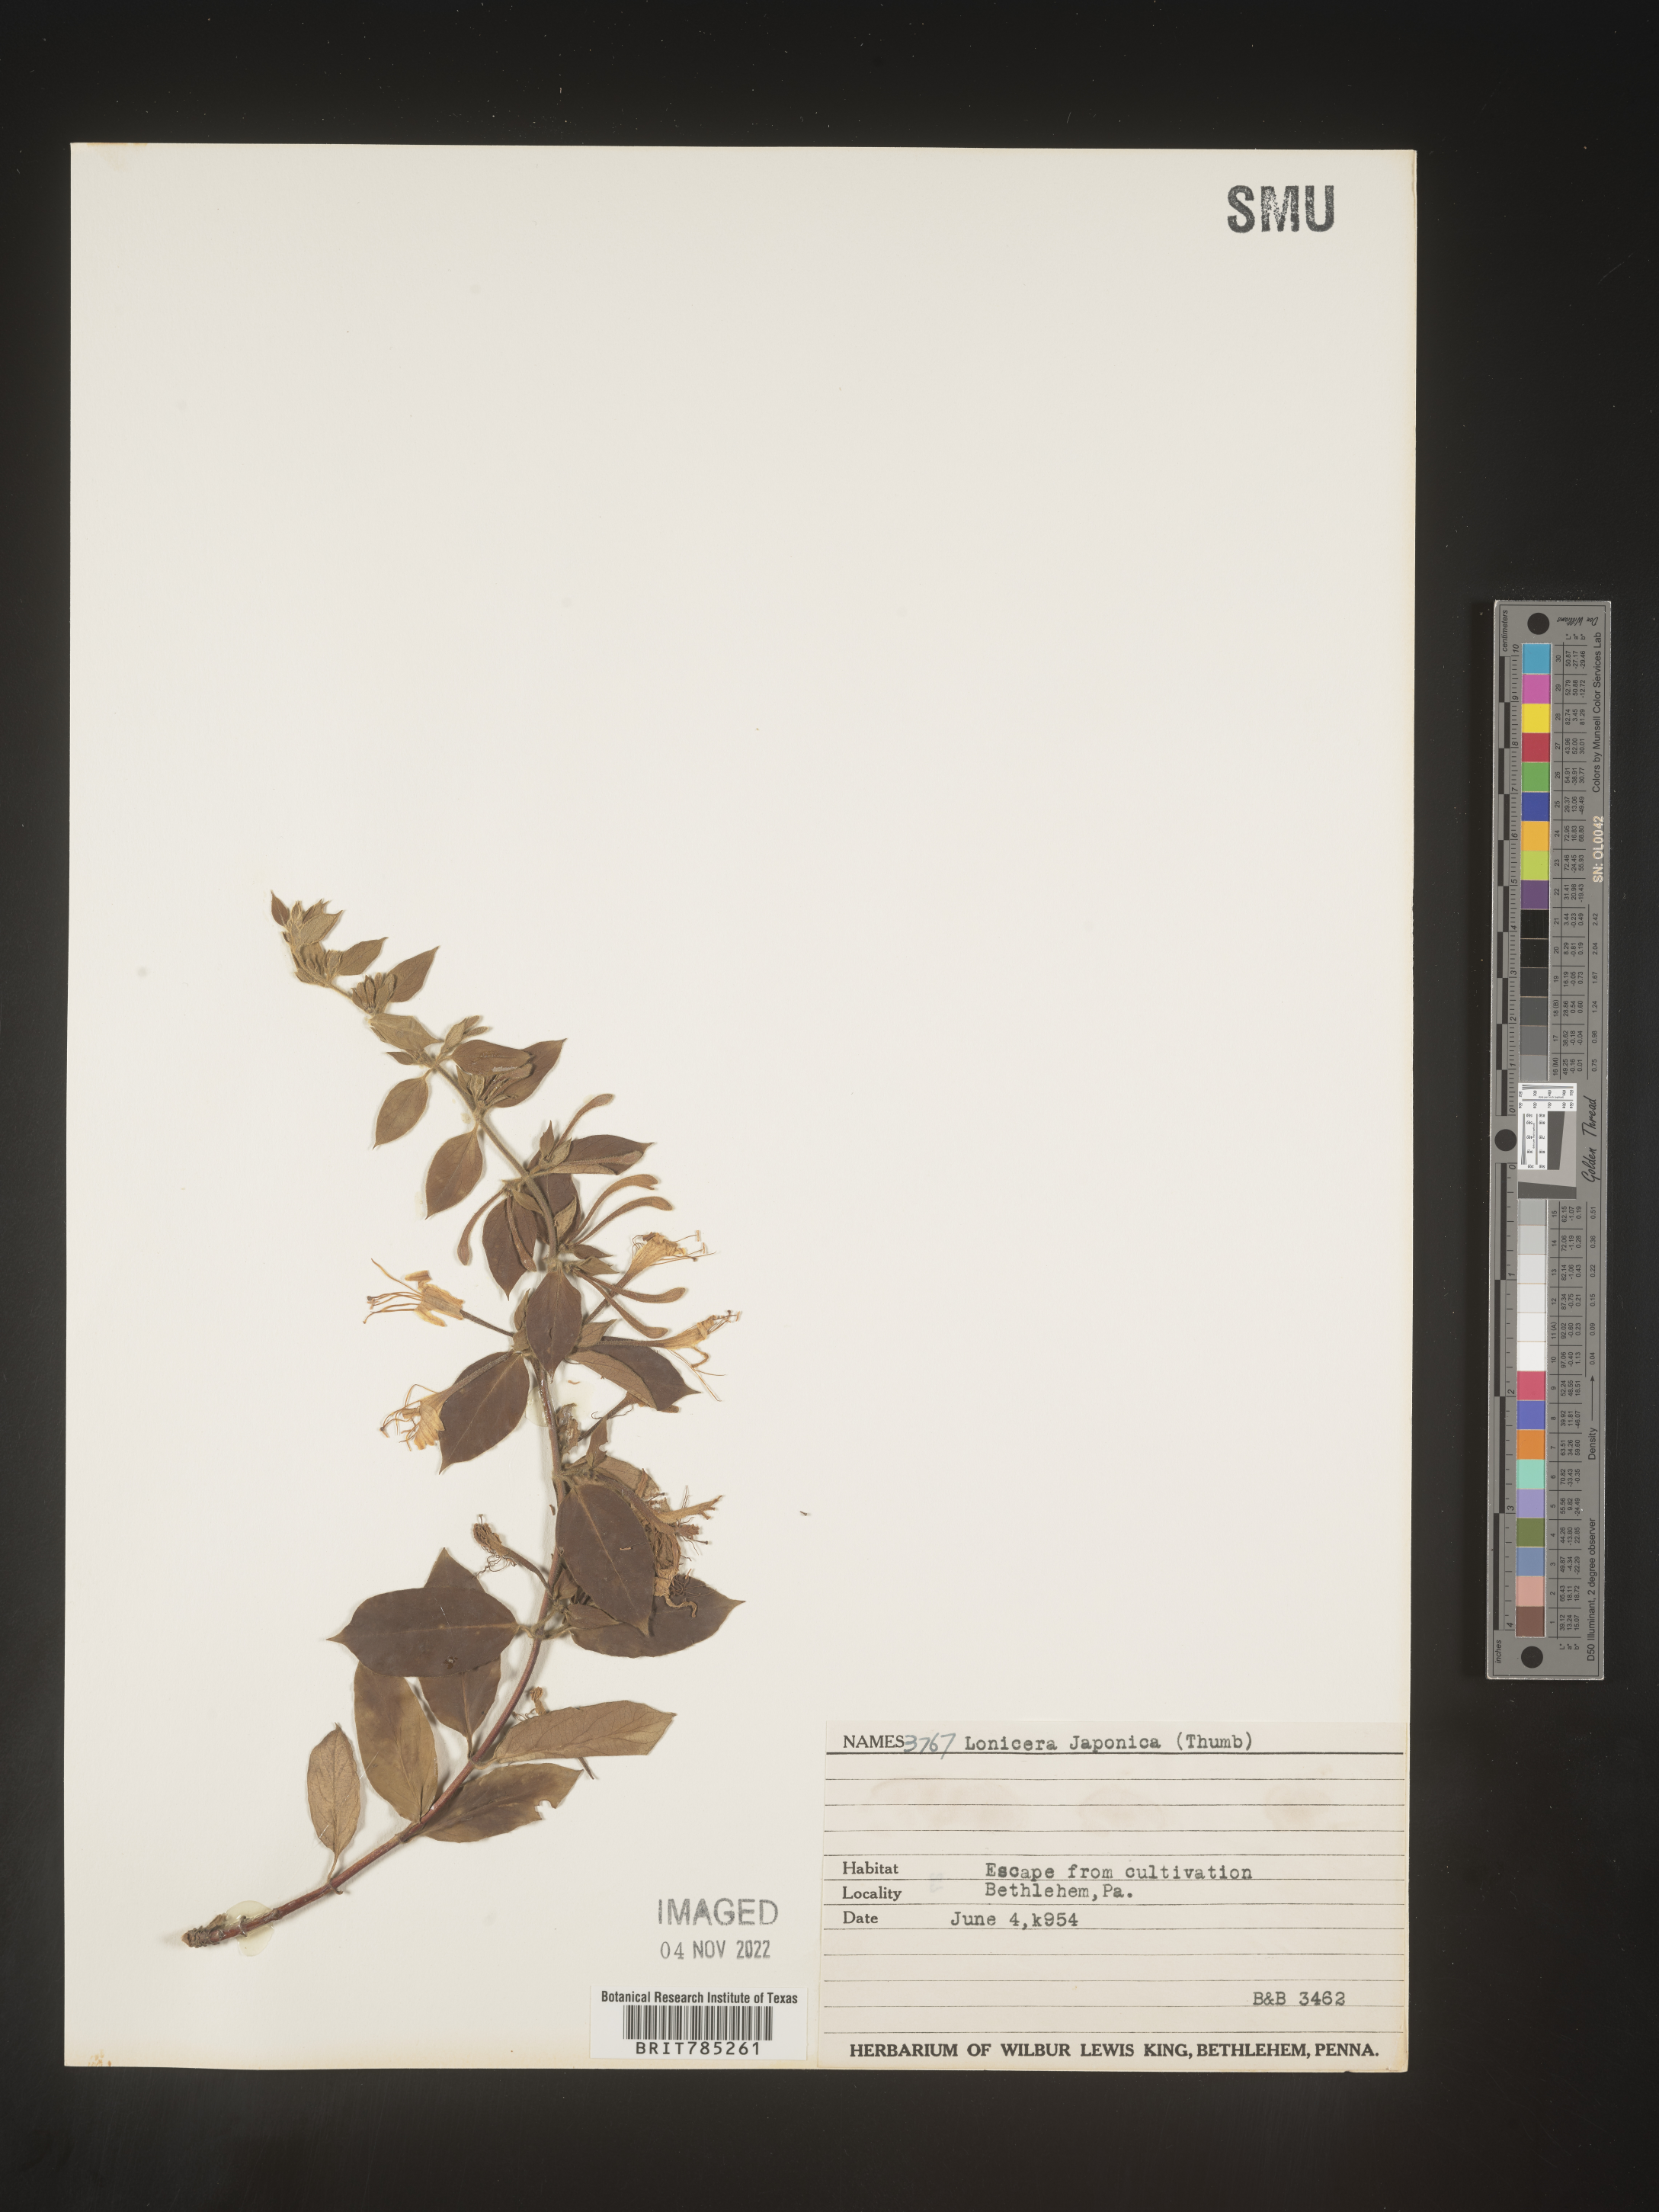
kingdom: Plantae
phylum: Tracheophyta
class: Magnoliopsida
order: Dipsacales
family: Caprifoliaceae
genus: Lonicera
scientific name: Lonicera japonica
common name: Japanese honeysuckle
